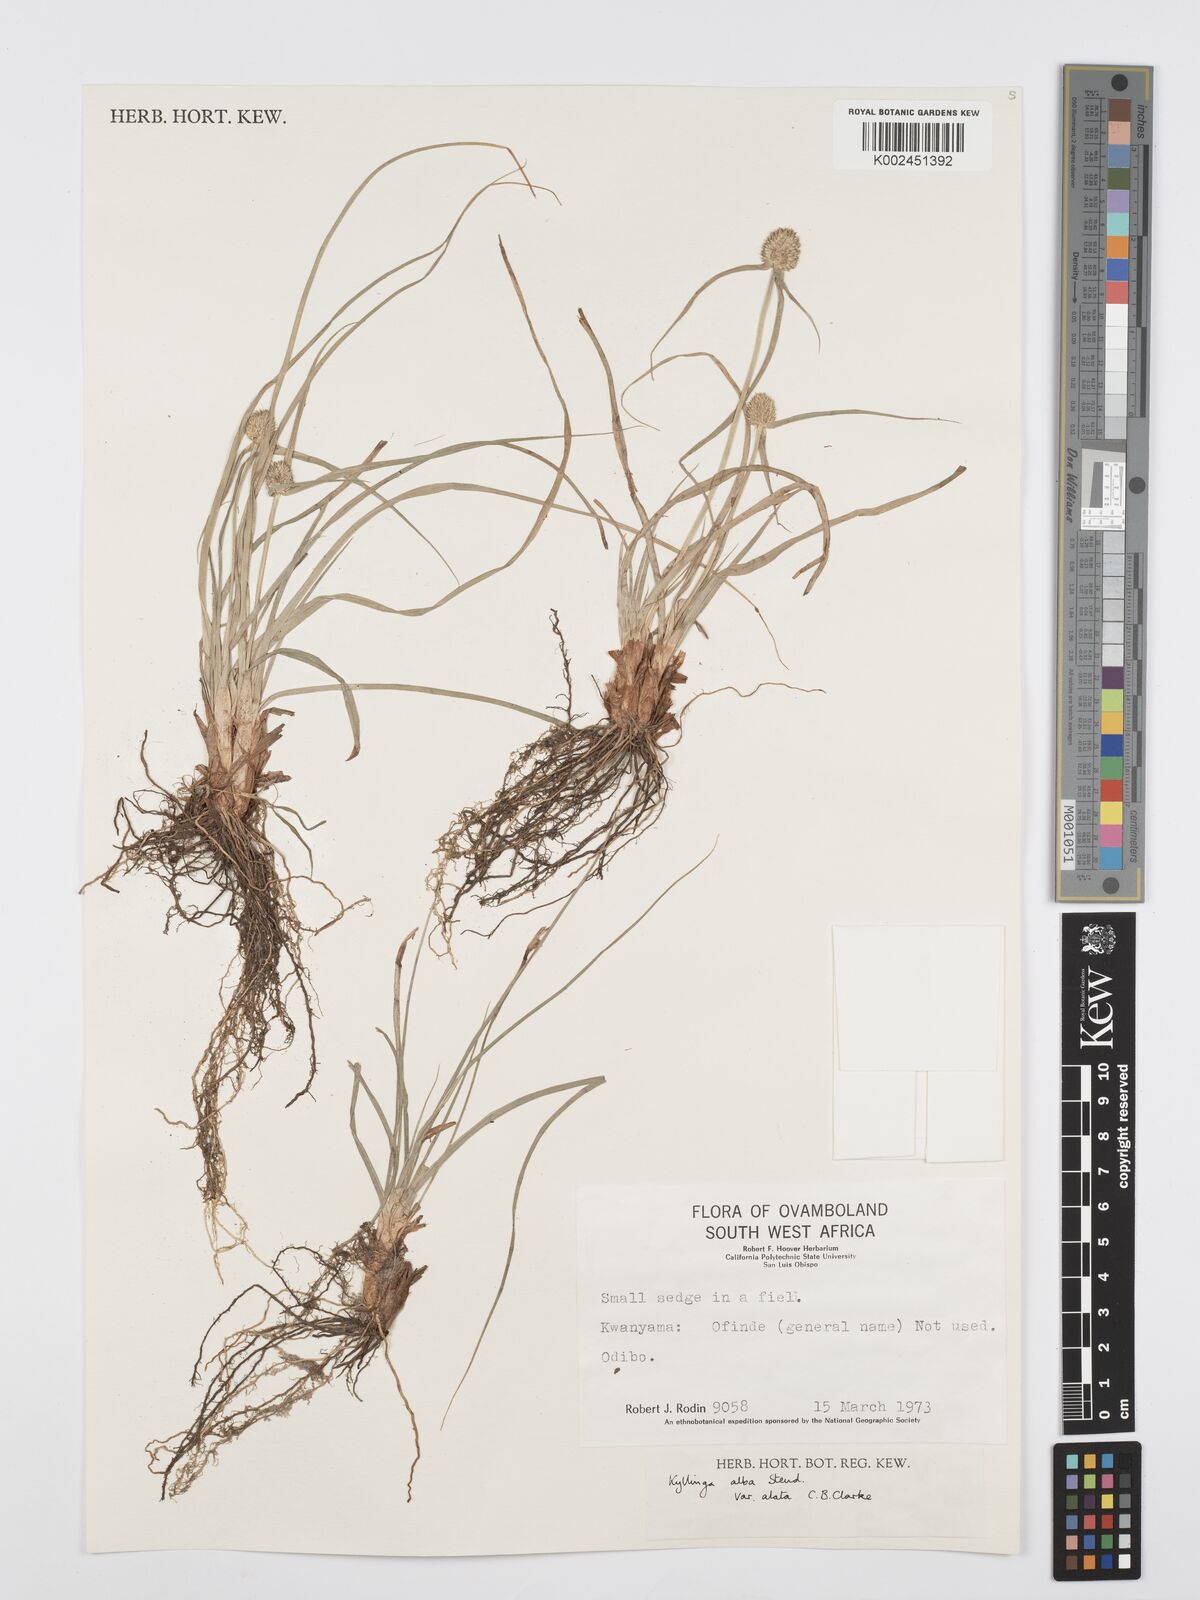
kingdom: Plantae
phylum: Tracheophyta
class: Liliopsida
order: Poales
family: Cyperaceae
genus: Cyperus
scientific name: Cyperus alatus
